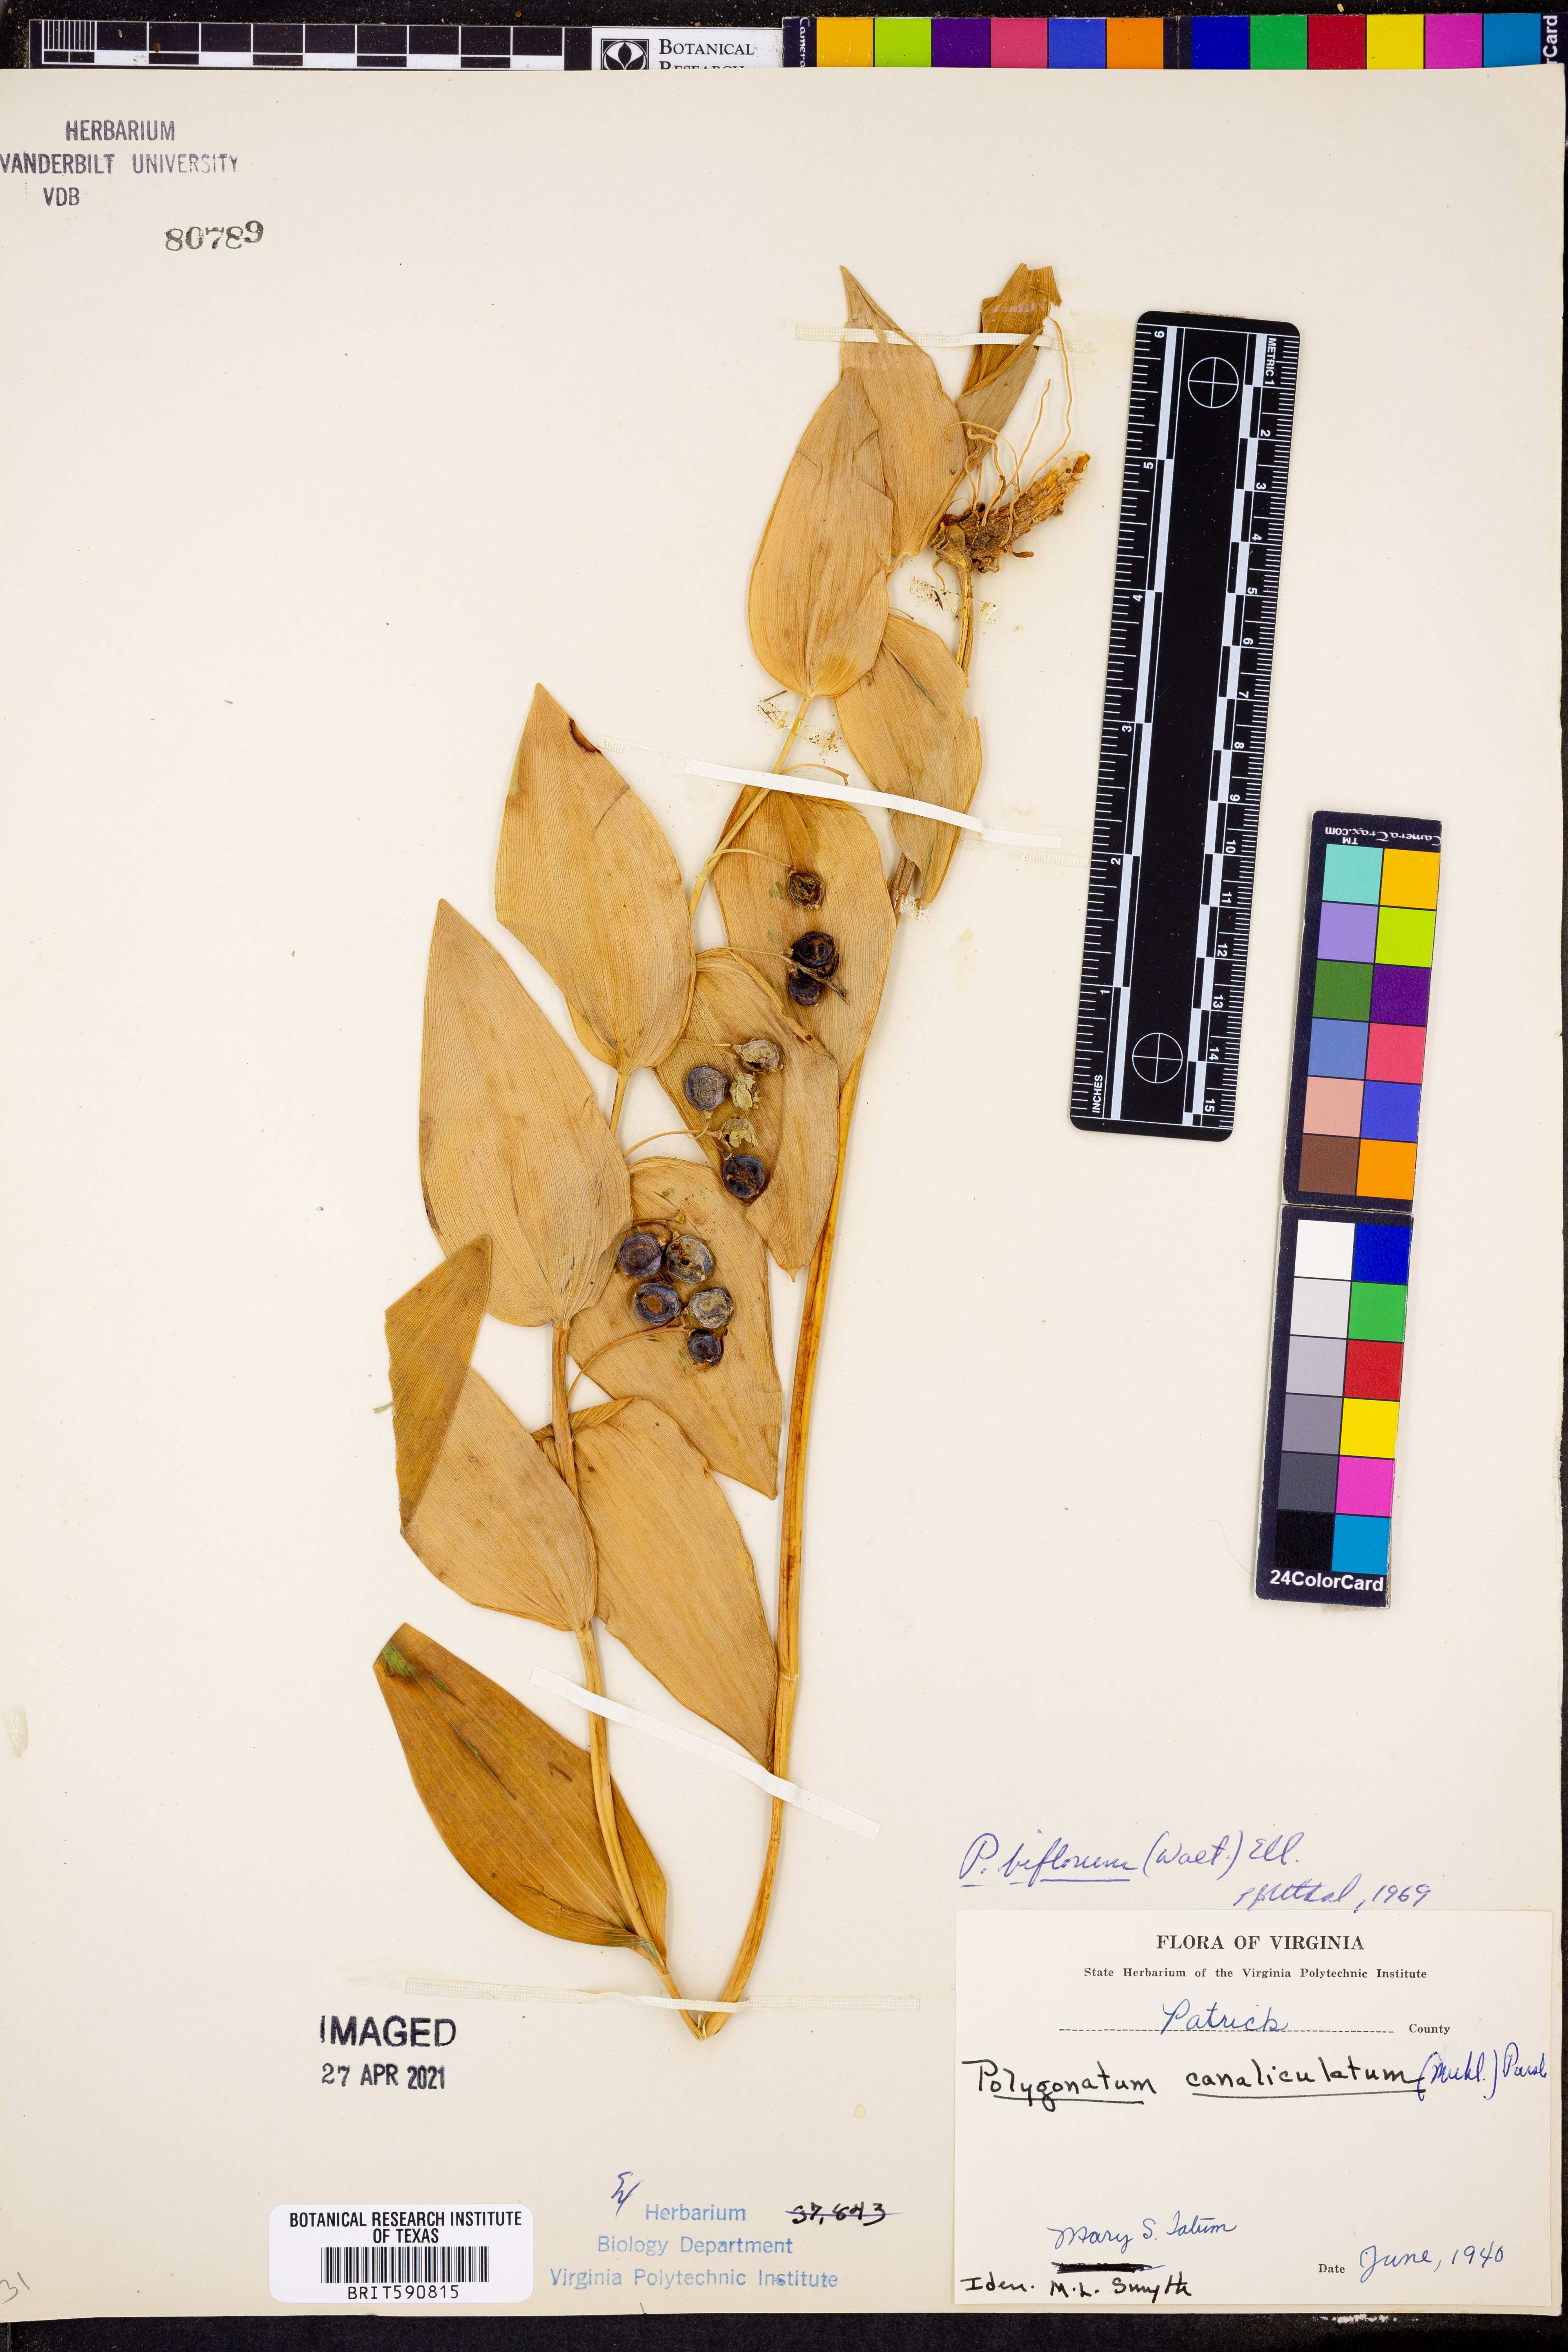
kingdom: Plantae
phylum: Tracheophyta
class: Liliopsida
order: Asparagales
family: Asparagaceae
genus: Polygonatum
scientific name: Polygonatum biflorum
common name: American solomon's-seal
